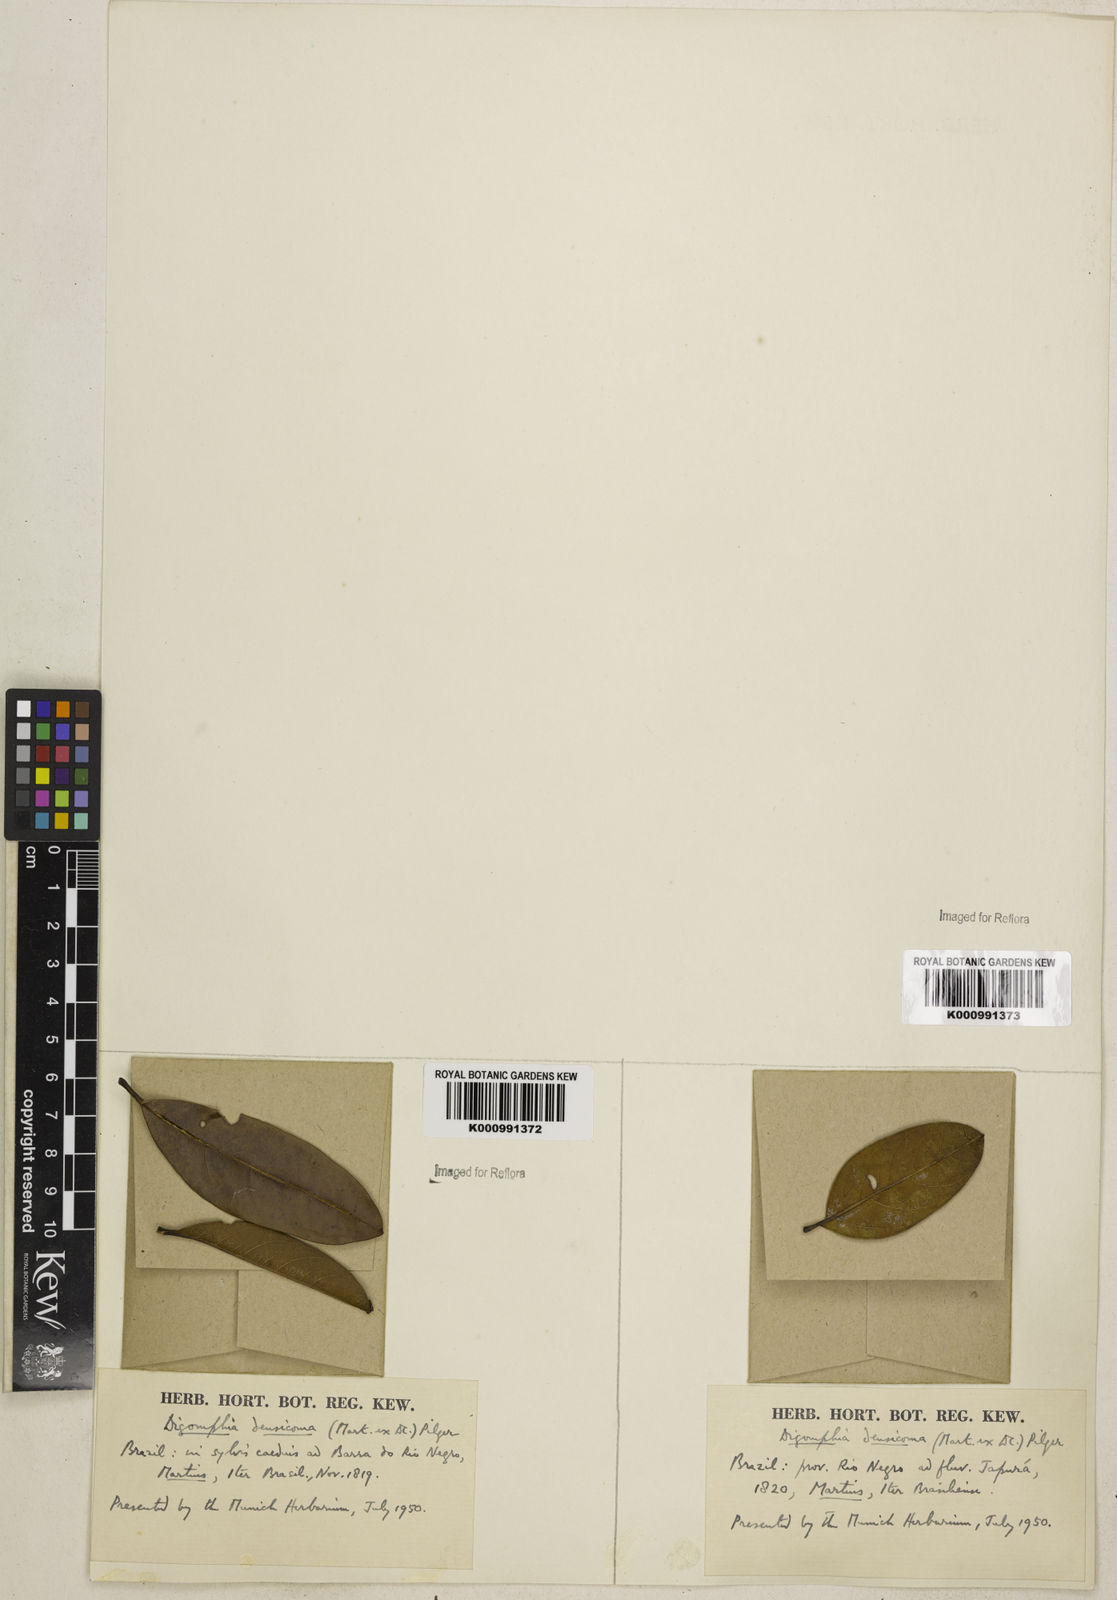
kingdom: Plantae
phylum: Tracheophyta
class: Magnoliopsida
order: Lamiales
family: Bignoniaceae
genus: Digomphia
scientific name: Digomphia densicoma
